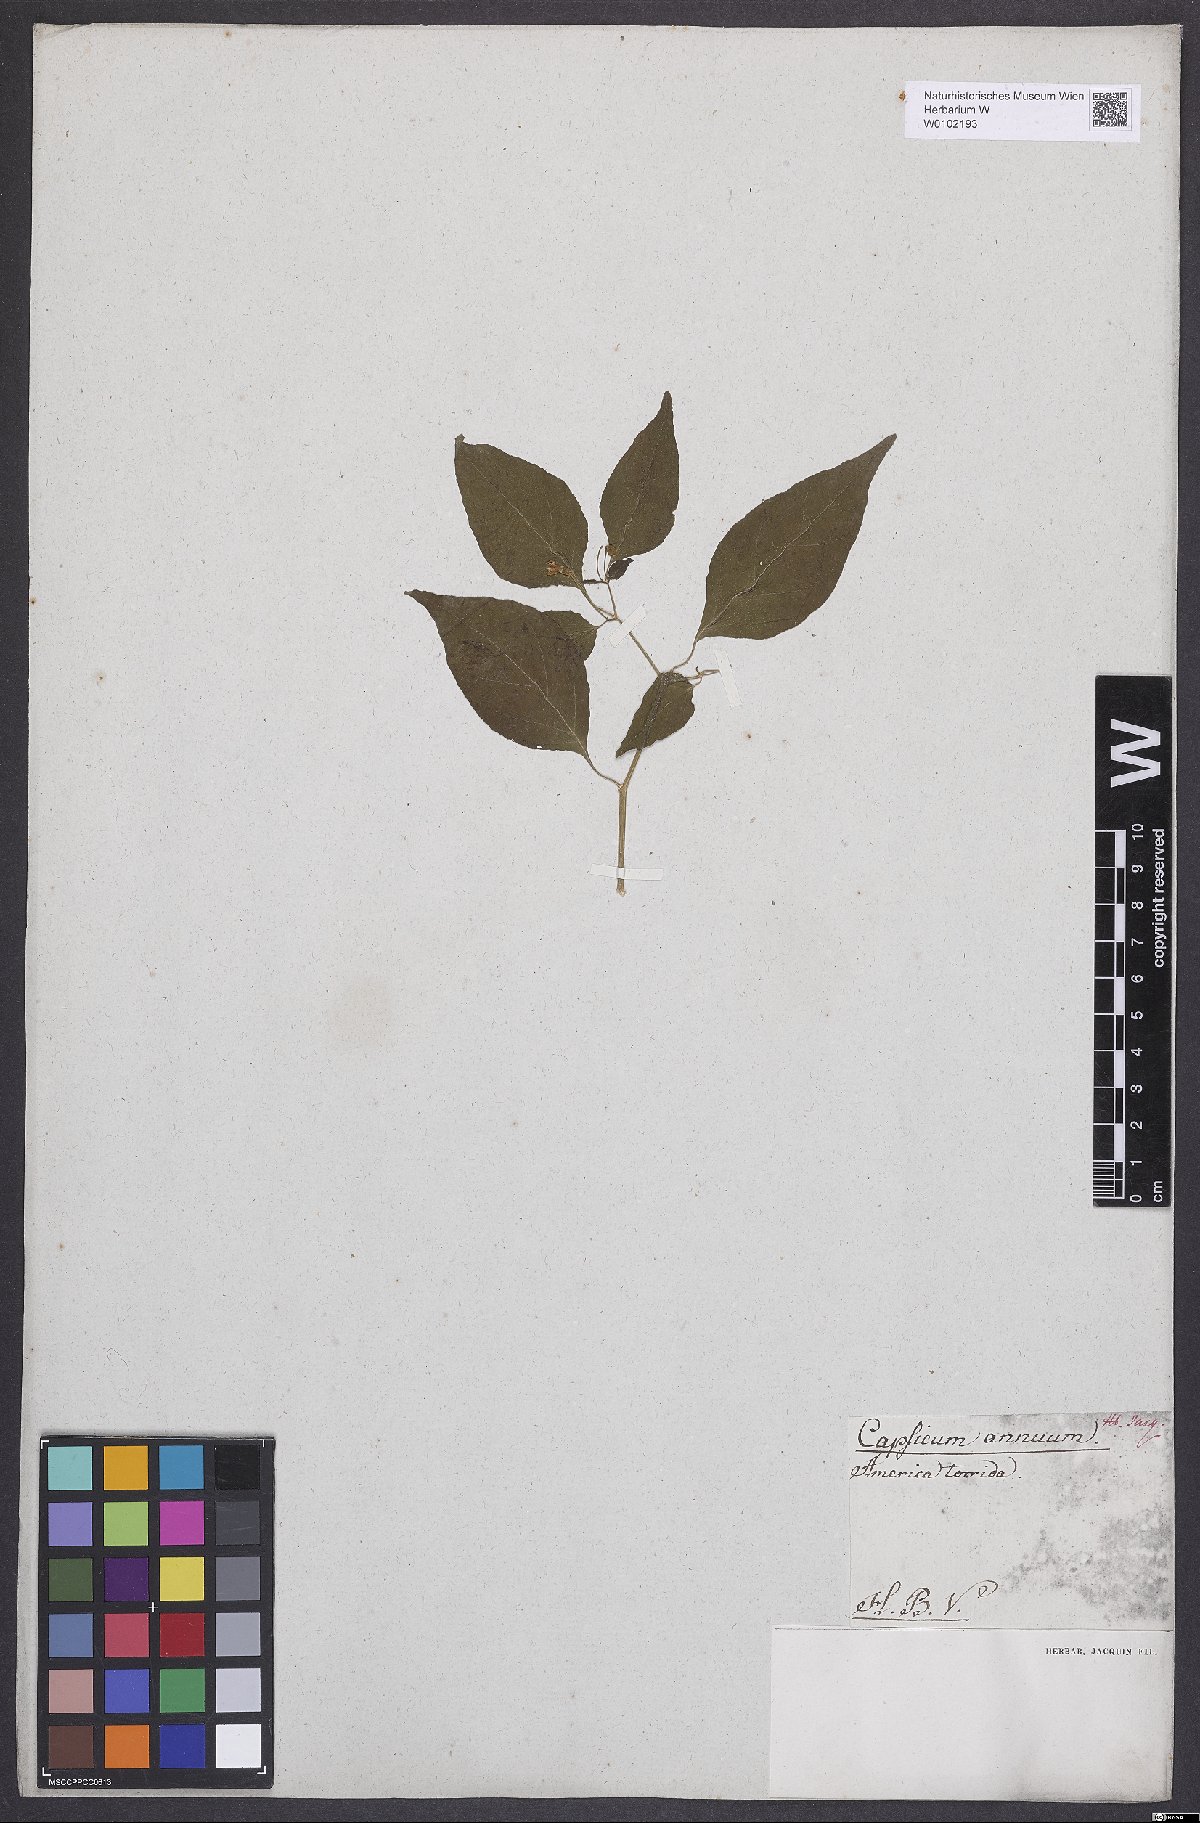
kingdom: Plantae
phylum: Tracheophyta
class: Magnoliopsida
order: Solanales
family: Solanaceae
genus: Capsicum
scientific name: Capsicum annuum
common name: Sweet pepper
